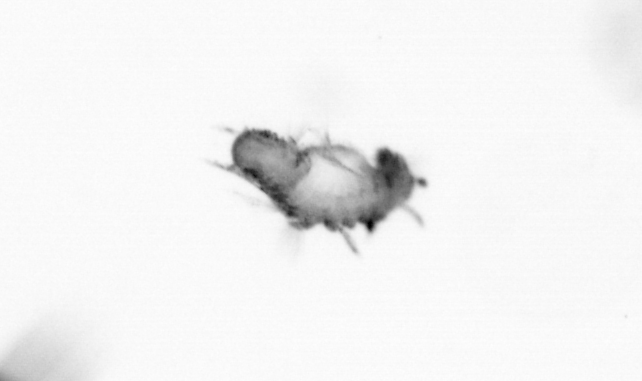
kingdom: Animalia
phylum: Annelida
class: Polychaeta
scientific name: Polychaeta
